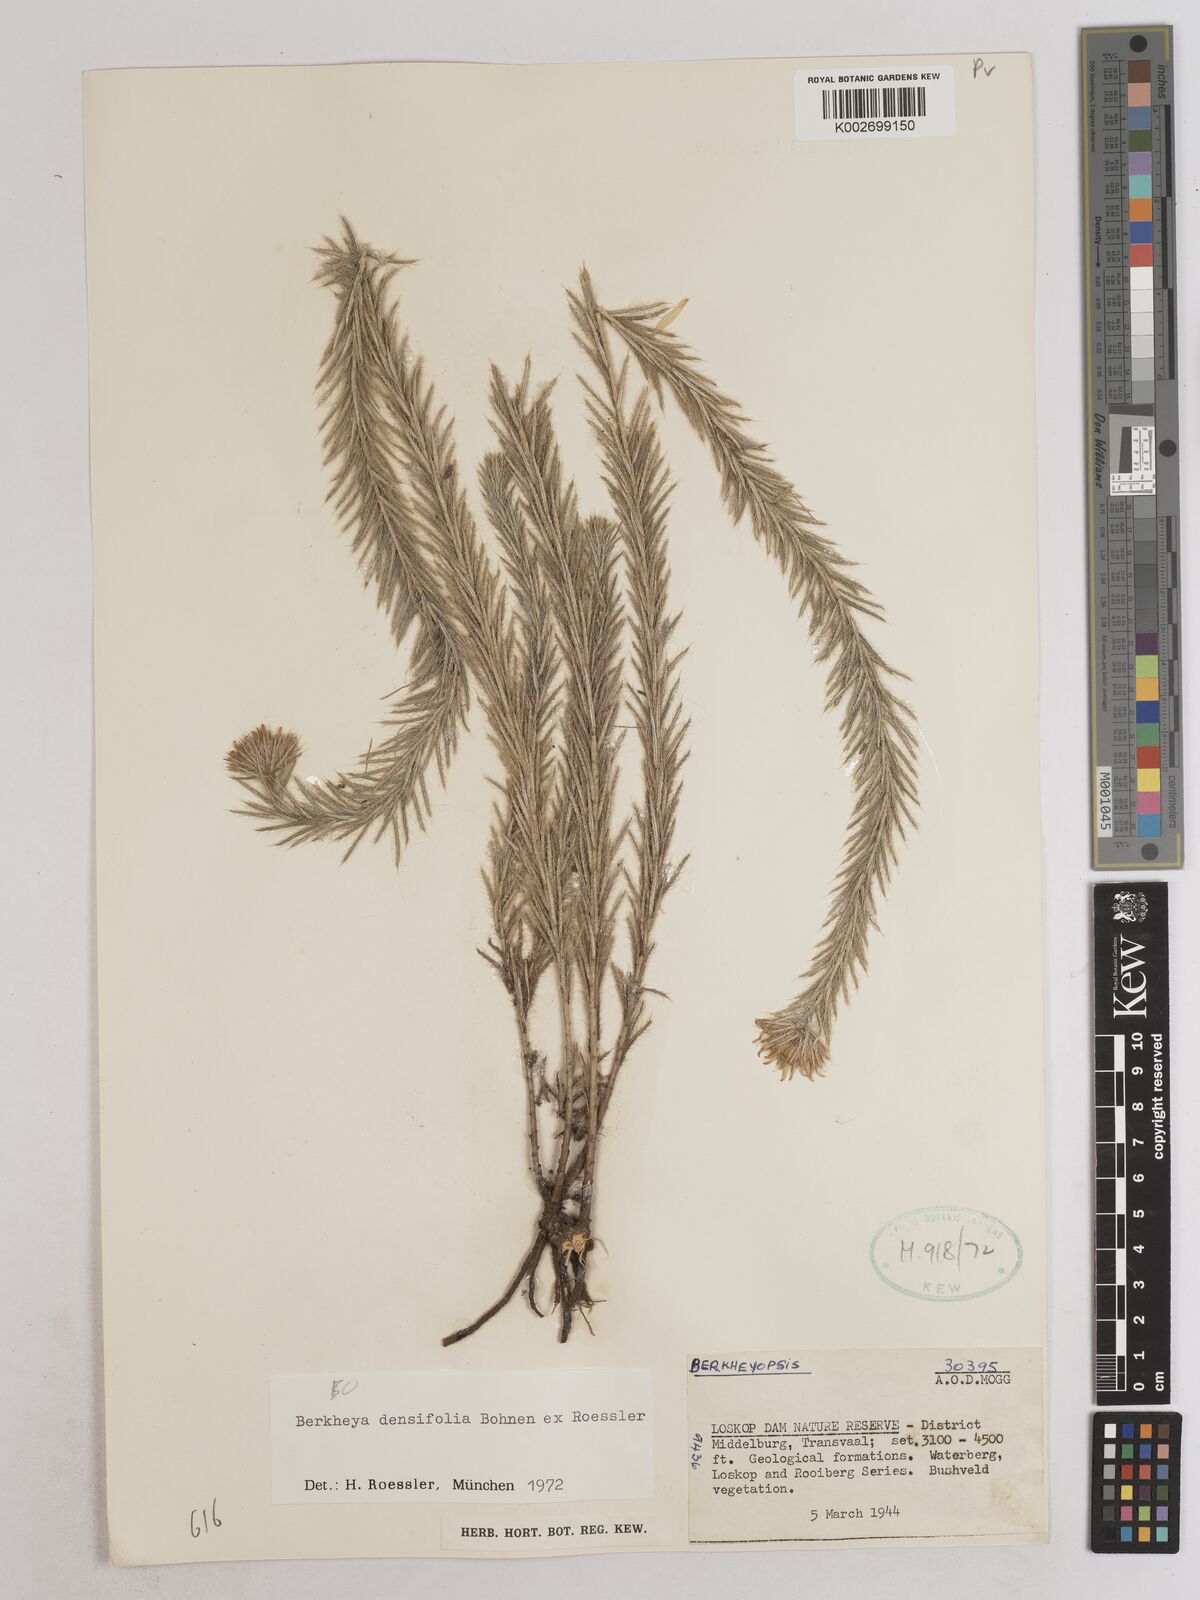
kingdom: Plantae
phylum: Tracheophyta
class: Magnoliopsida
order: Asterales
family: Asteraceae
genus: Berkheya
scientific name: Berkheya densifolia
